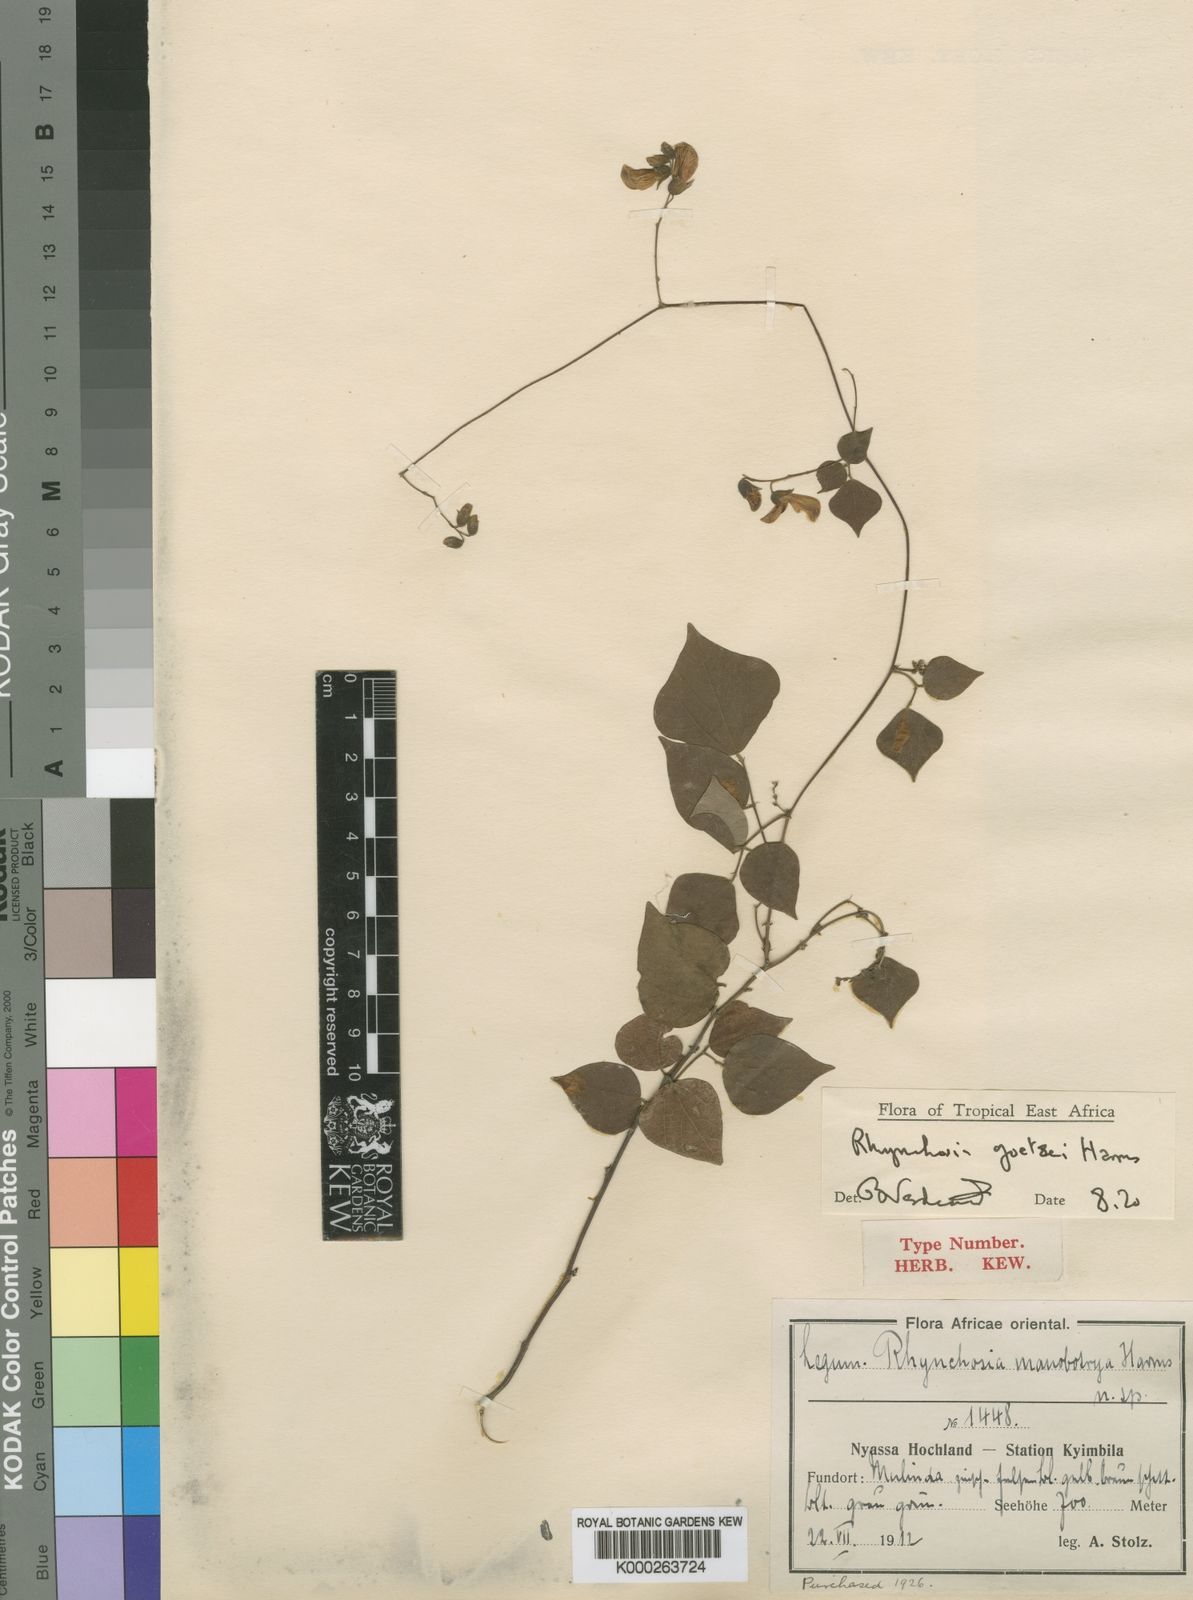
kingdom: Plantae
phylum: Tracheophyta
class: Magnoliopsida
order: Fabales
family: Fabaceae
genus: Rhynchosia
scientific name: Rhynchosia goetzei
